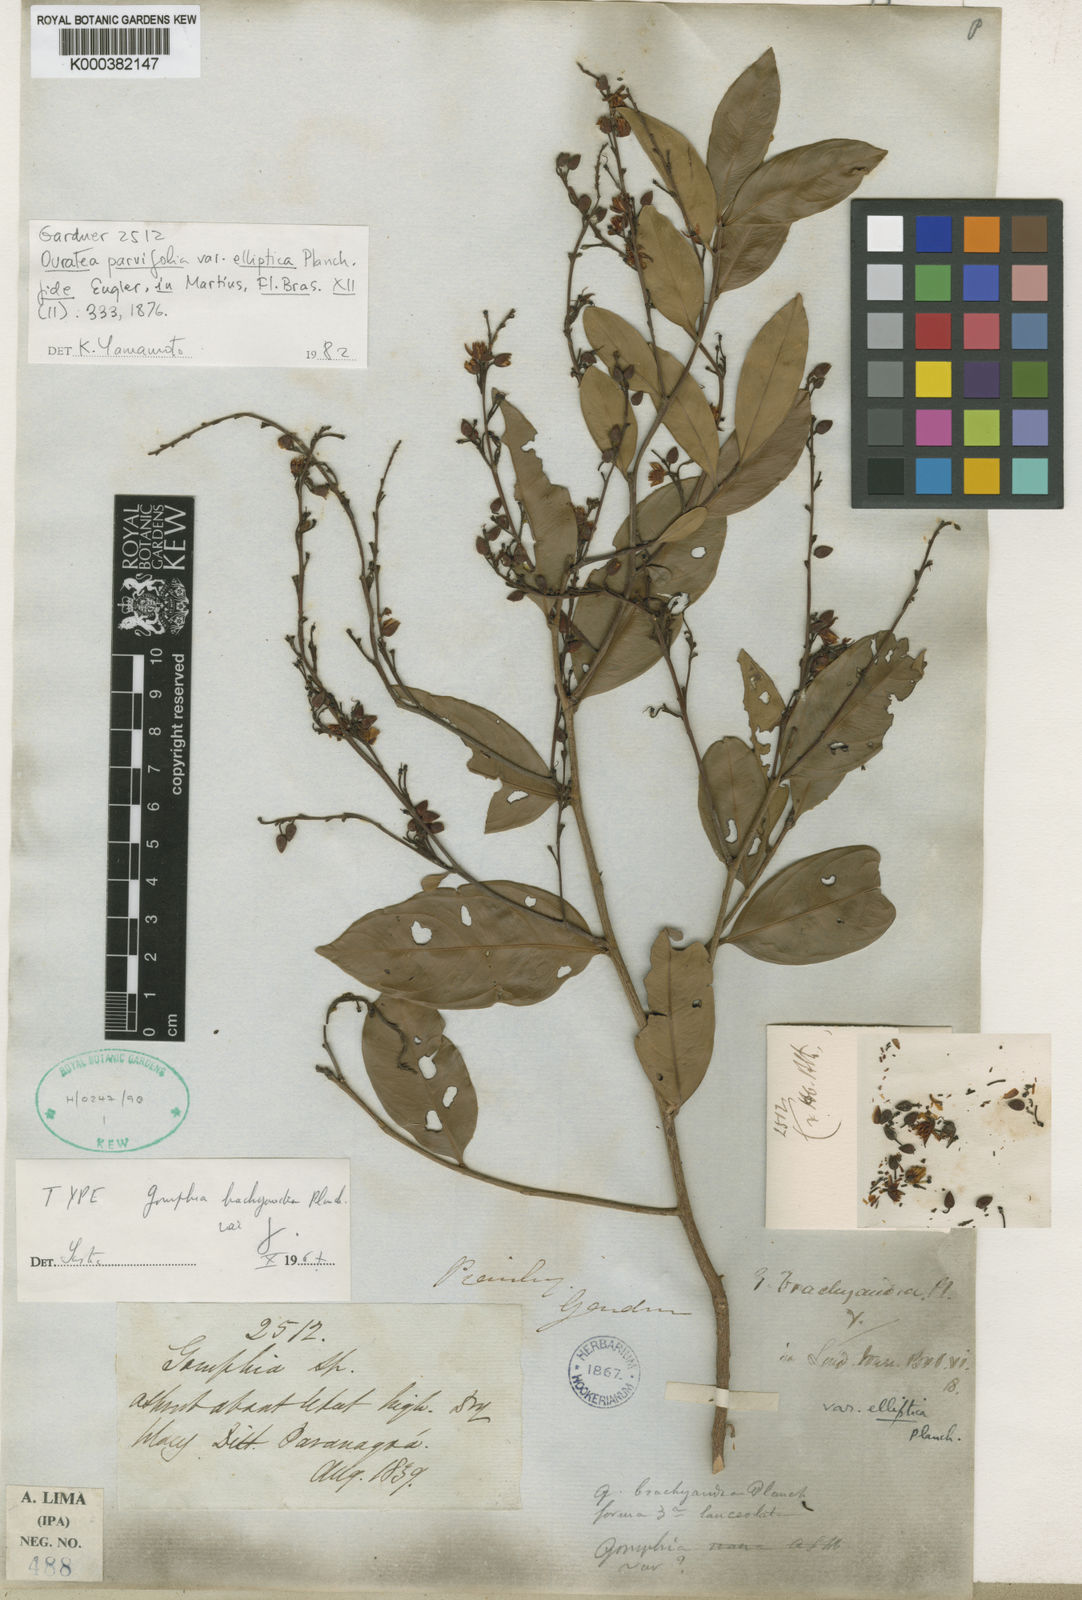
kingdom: Plantae
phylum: Tracheophyta
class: Magnoliopsida
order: Malpighiales
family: Ochnaceae
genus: Ouratea
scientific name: Ouratea parvifolia
